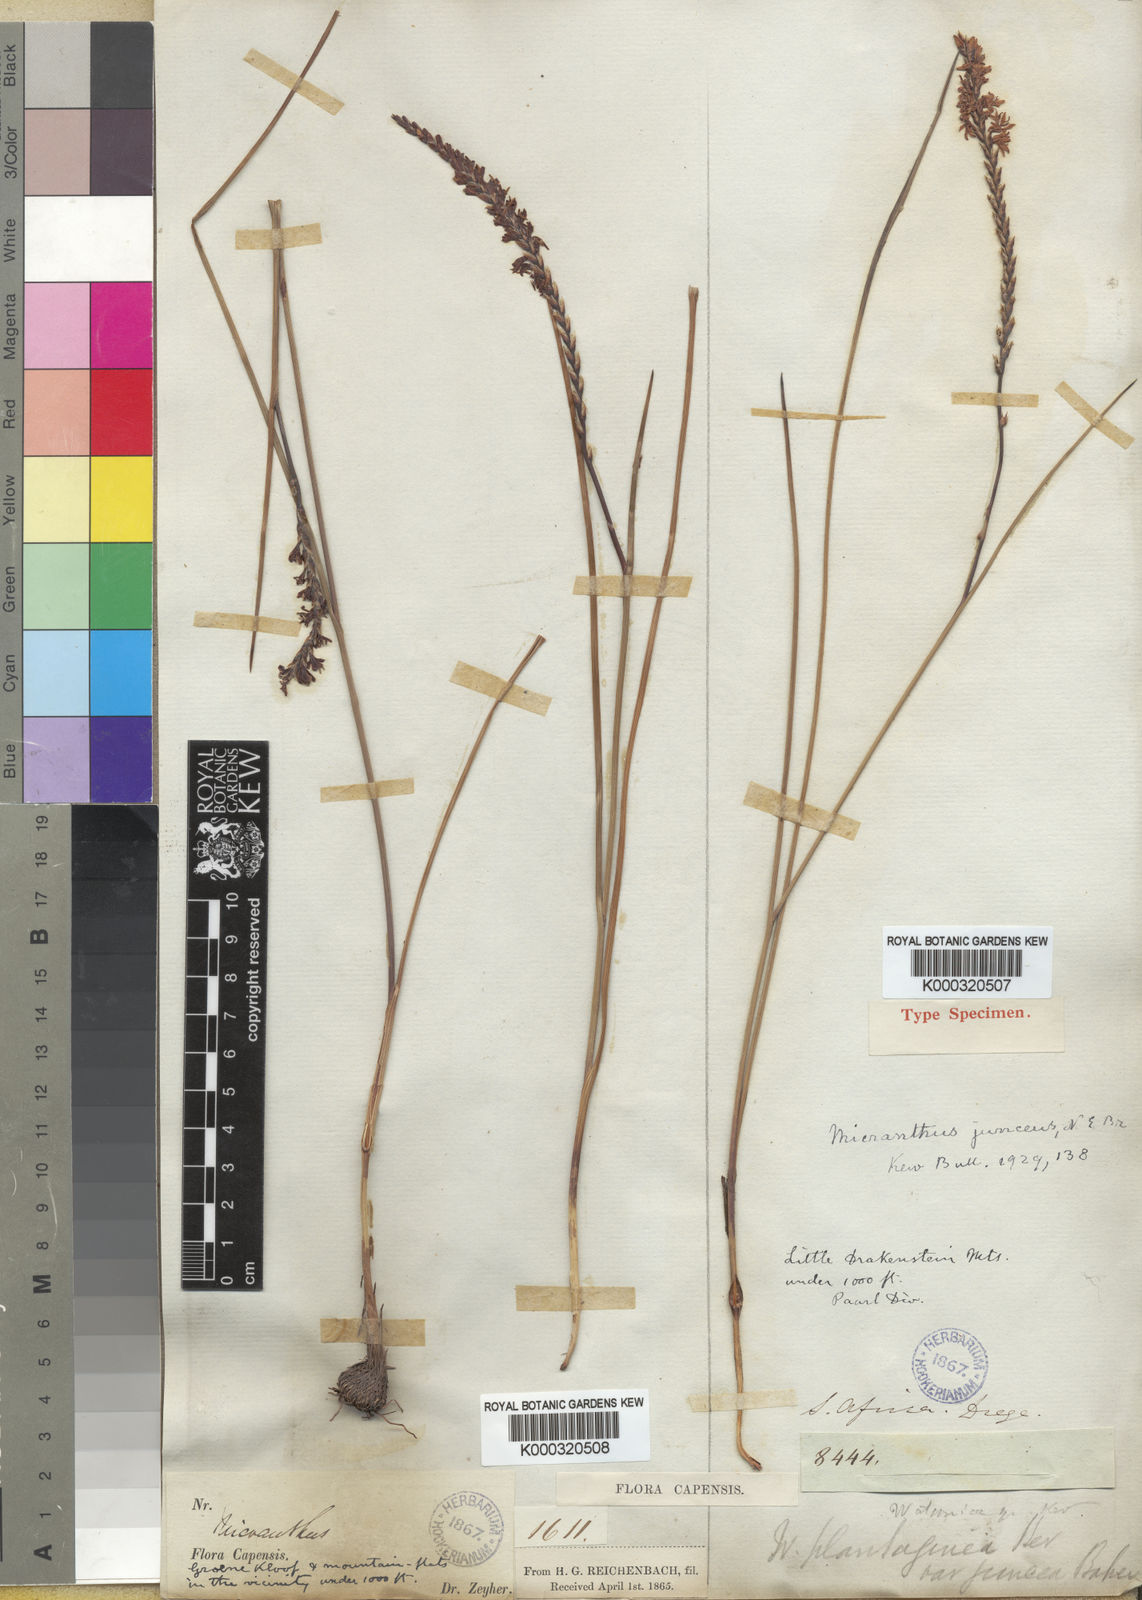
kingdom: Plantae
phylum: Tracheophyta
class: Liliopsida
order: Asparagales
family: Iridaceae
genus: Micranthus
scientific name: Micranthus plantagineus
